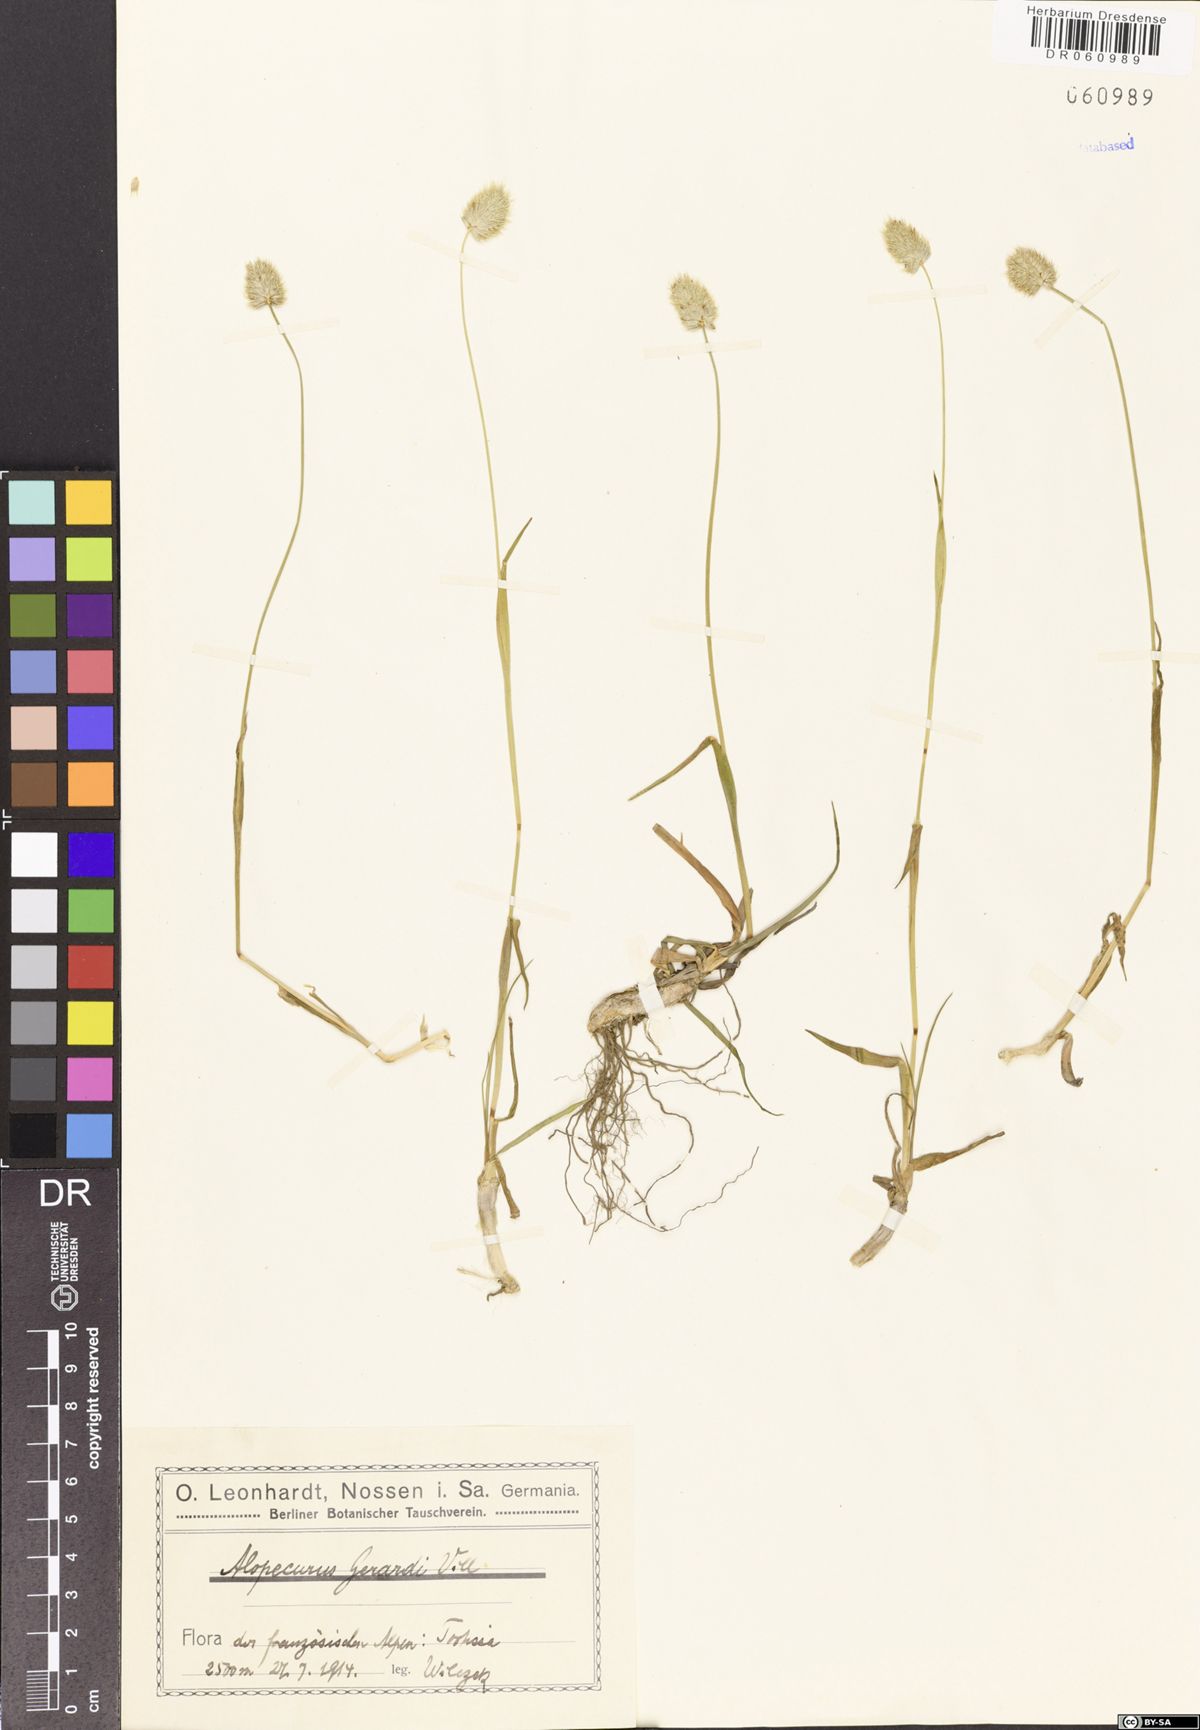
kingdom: Plantae
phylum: Tracheophyta
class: Liliopsida
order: Poales
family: Poaceae
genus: Alopecurus
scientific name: Alopecurus gerardii
